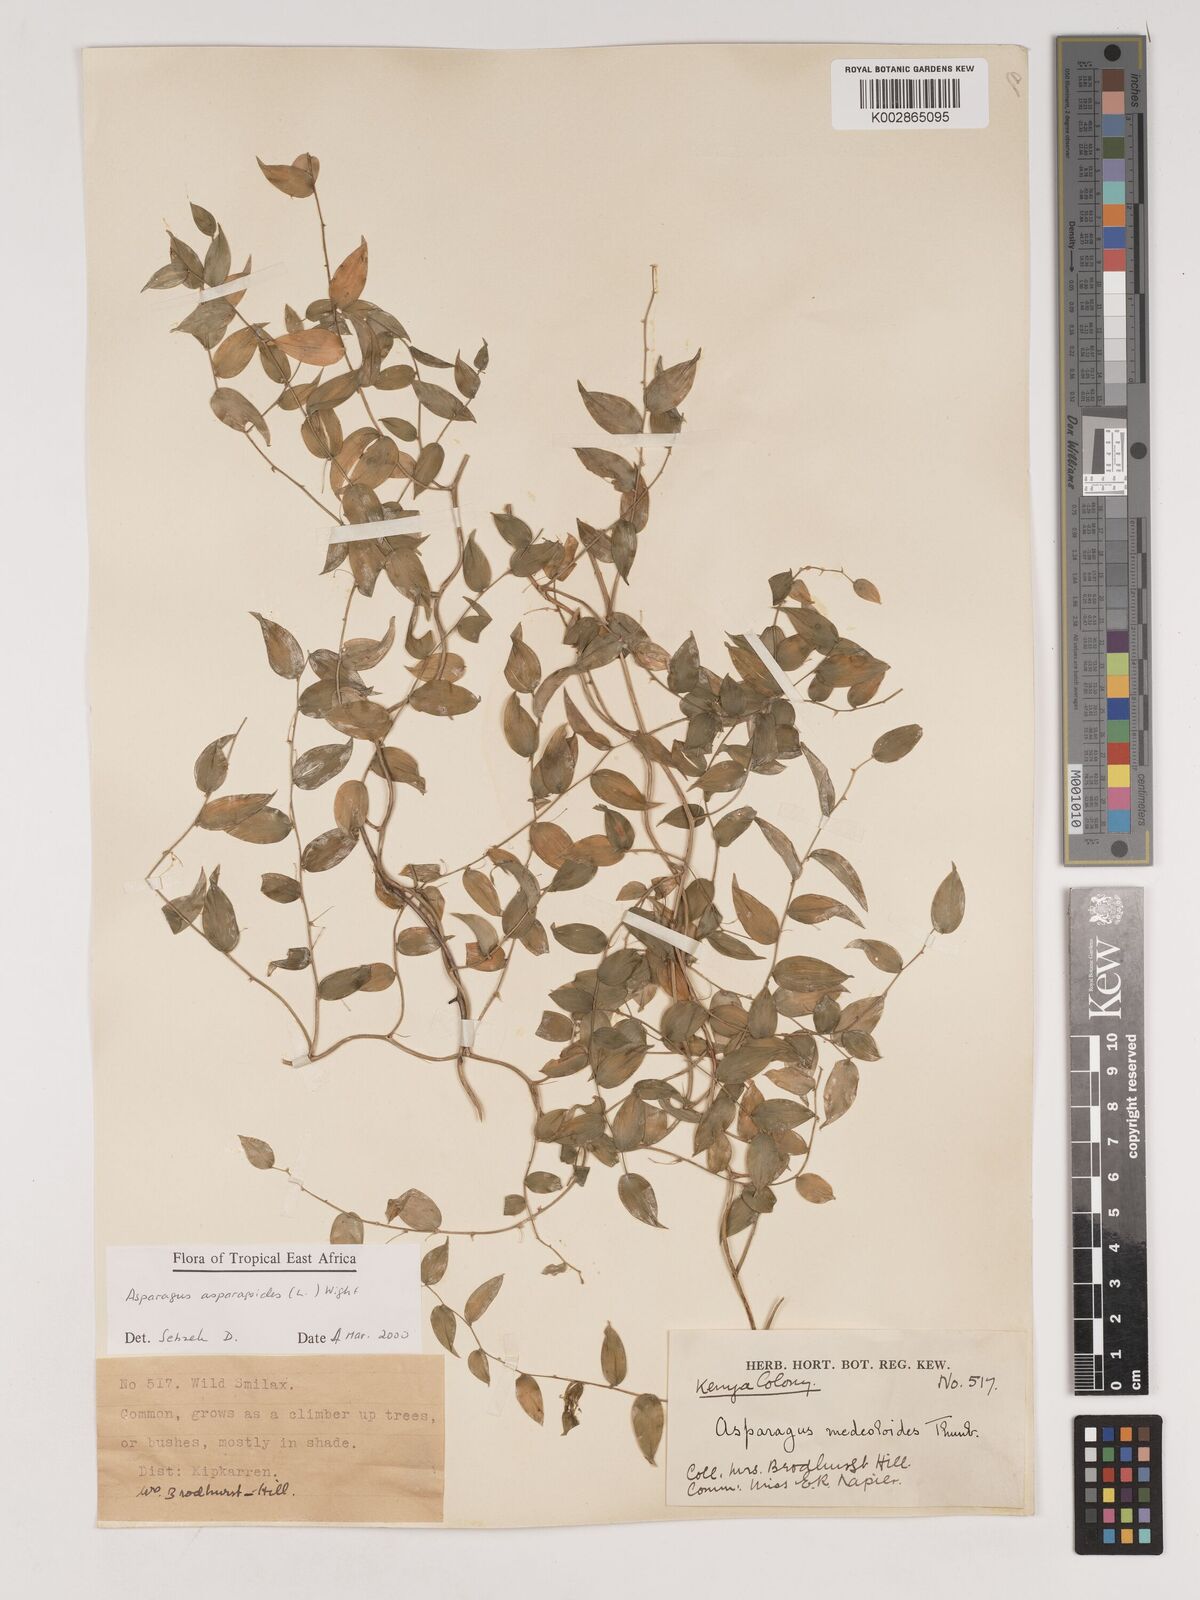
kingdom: Plantae
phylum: Tracheophyta
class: Liliopsida
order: Asparagales
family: Asparagaceae
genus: Asparagus
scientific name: Asparagus asparagoides
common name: African asparagus fern
